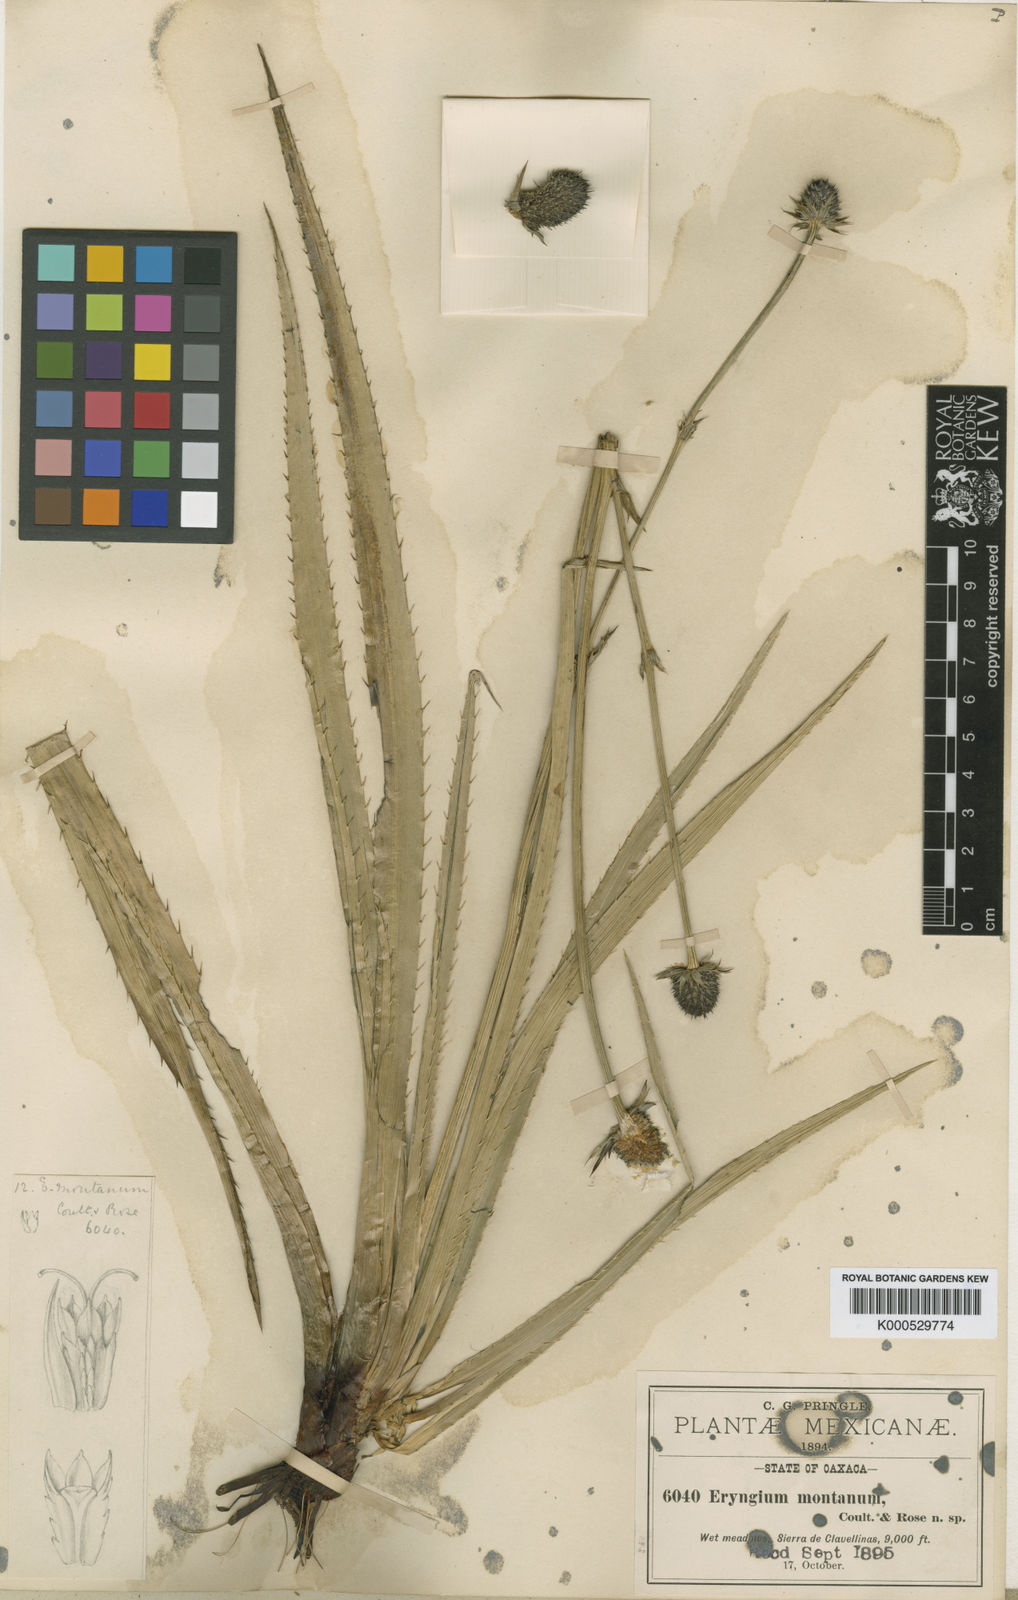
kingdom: Plantae
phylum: Tracheophyta
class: Magnoliopsida
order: Apiales
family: Apiaceae
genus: Eryngium
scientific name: Eryngium montanum
